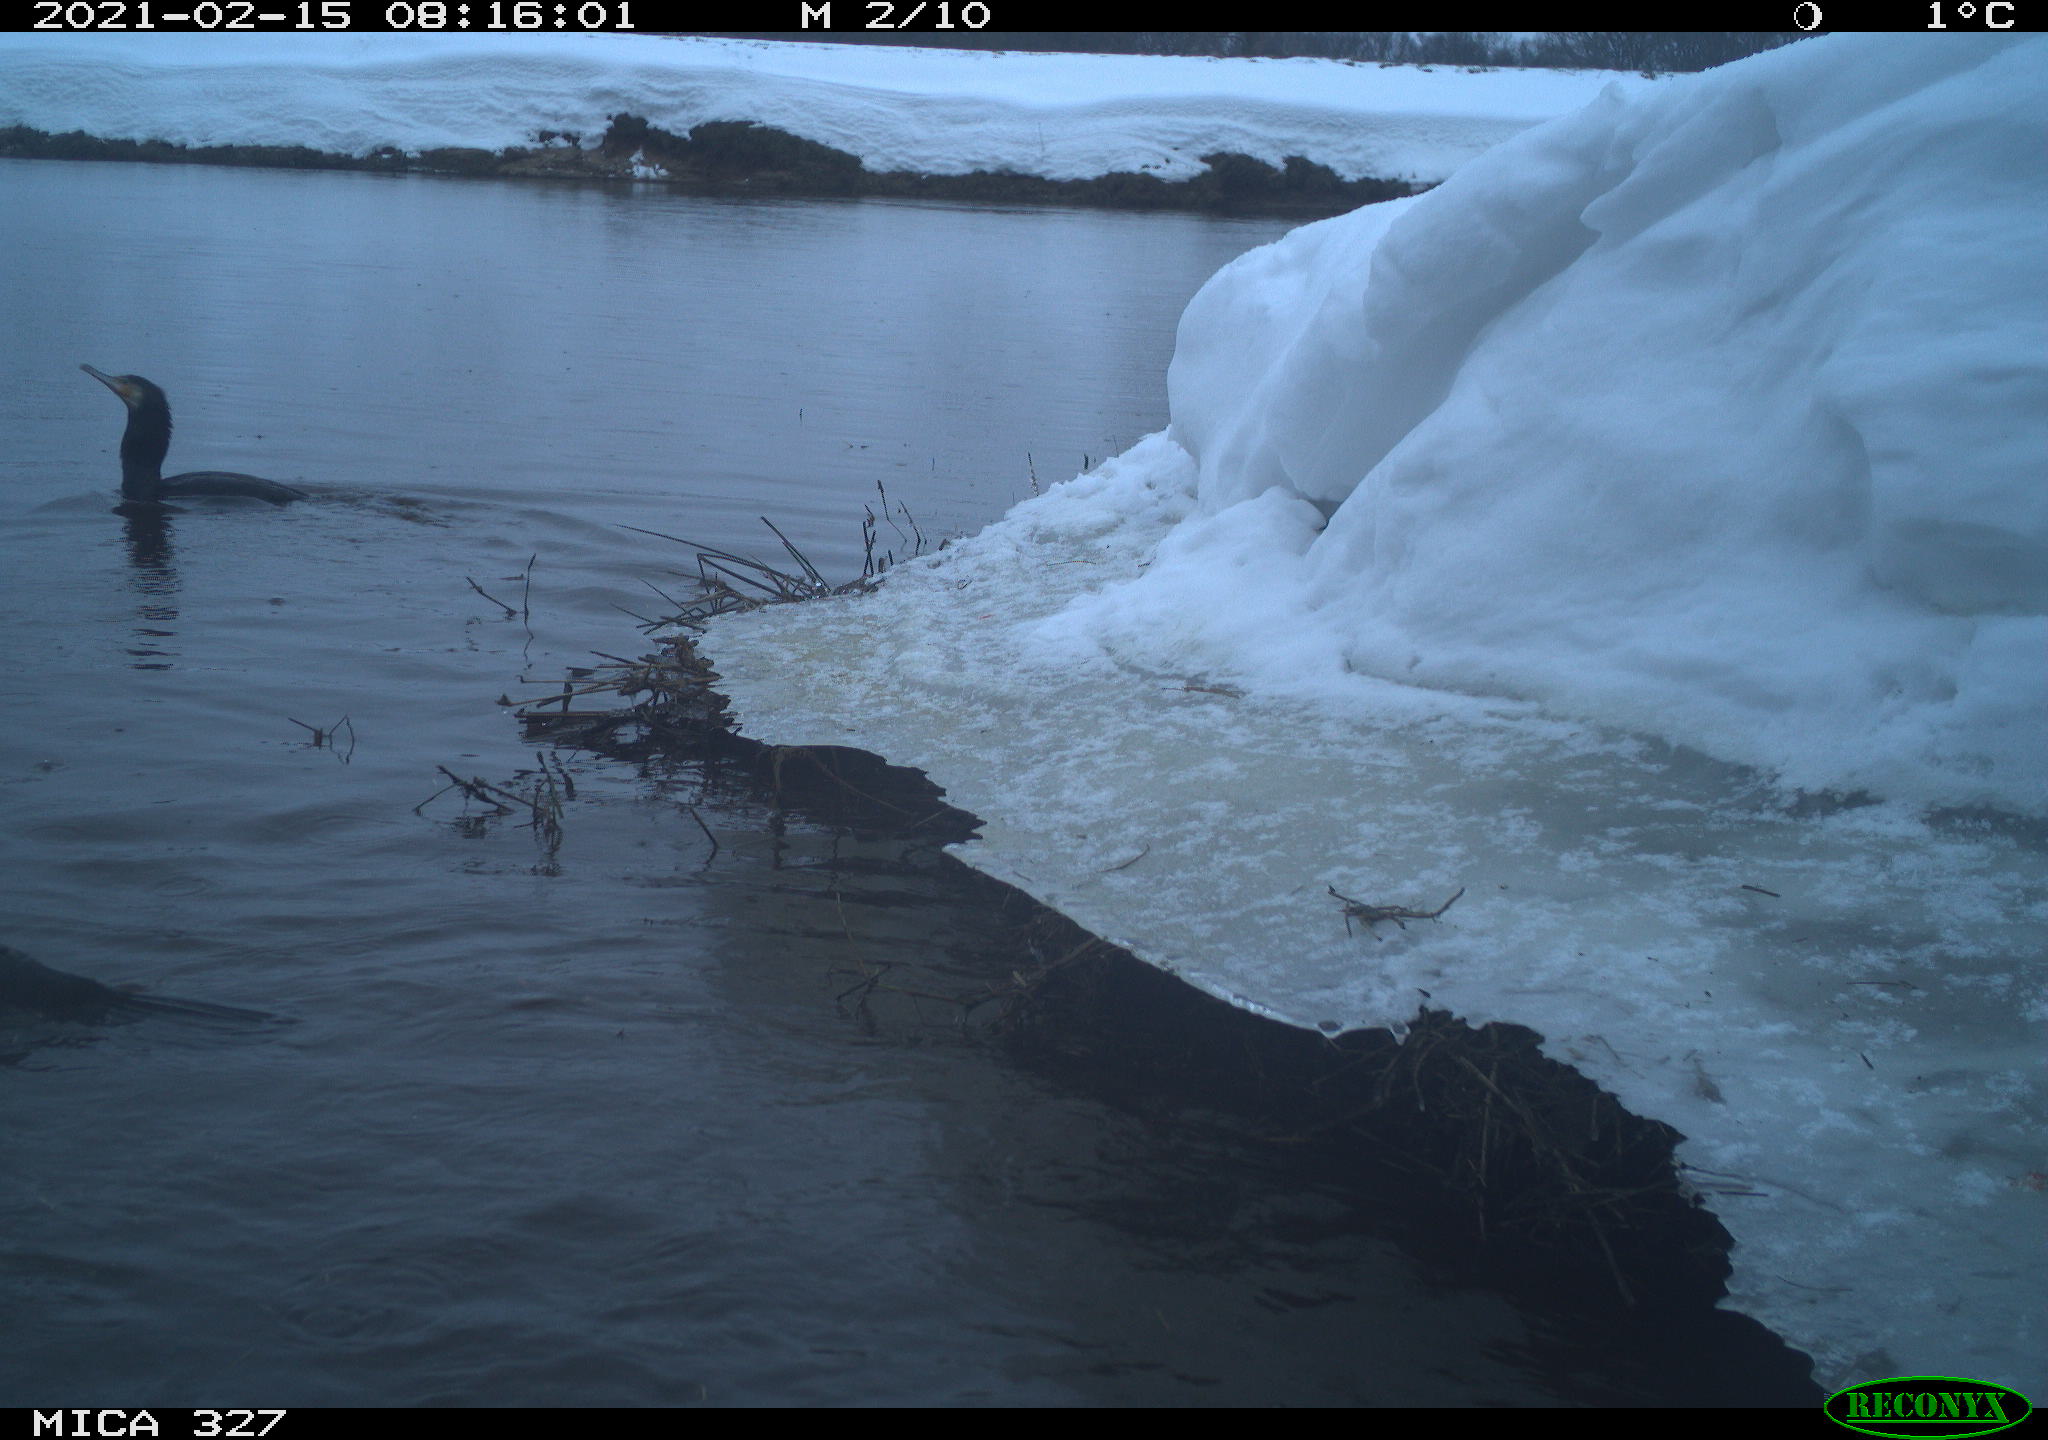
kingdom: Animalia
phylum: Chordata
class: Aves
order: Suliformes
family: Phalacrocoracidae
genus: Phalacrocorax
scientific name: Phalacrocorax carbo
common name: Great cormorant
